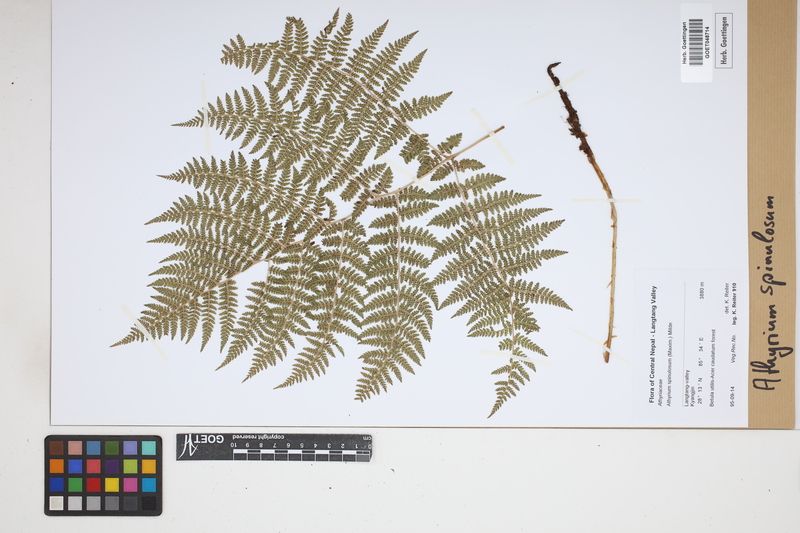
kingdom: Plantae
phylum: Tracheophyta
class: Polypodiopsida
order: Polypodiales
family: Athyriaceae
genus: Athyrium
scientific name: Athyrium spinulosum
